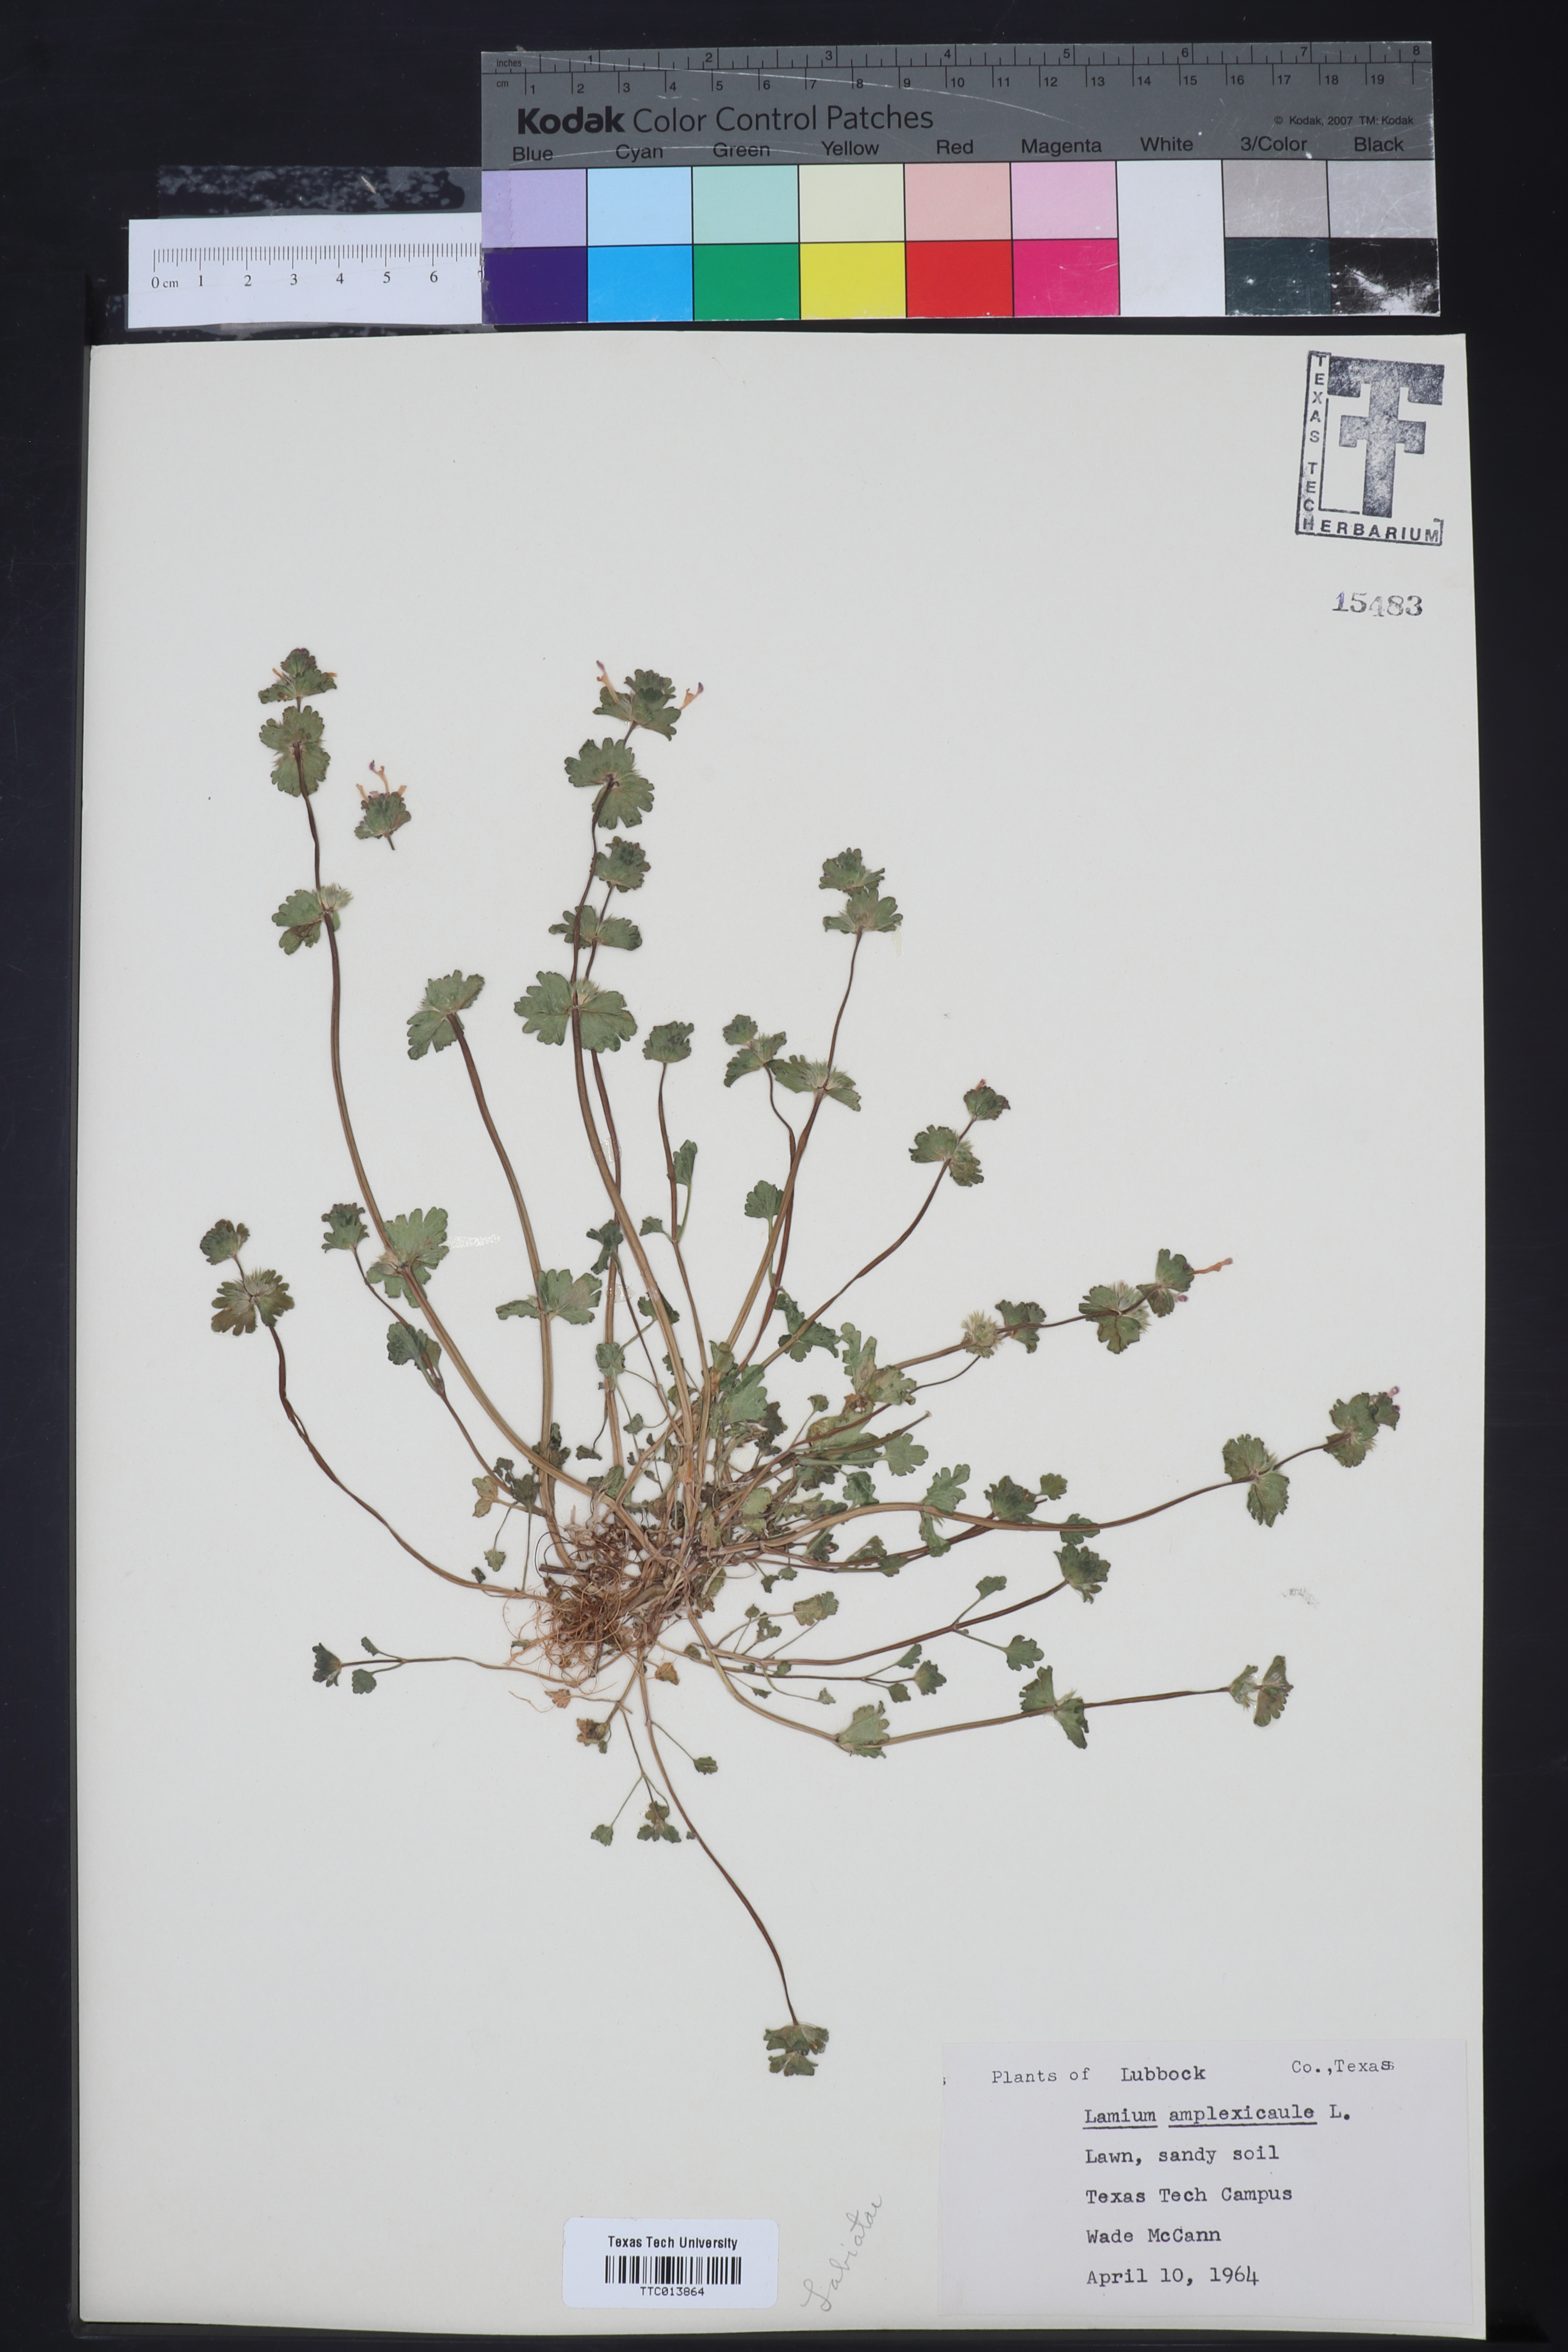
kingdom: Plantae
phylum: Tracheophyta
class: Magnoliopsida
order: Lamiales
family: Lamiaceae
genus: Lamium
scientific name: Lamium amplexicaule
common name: Henbit dead-nettle
